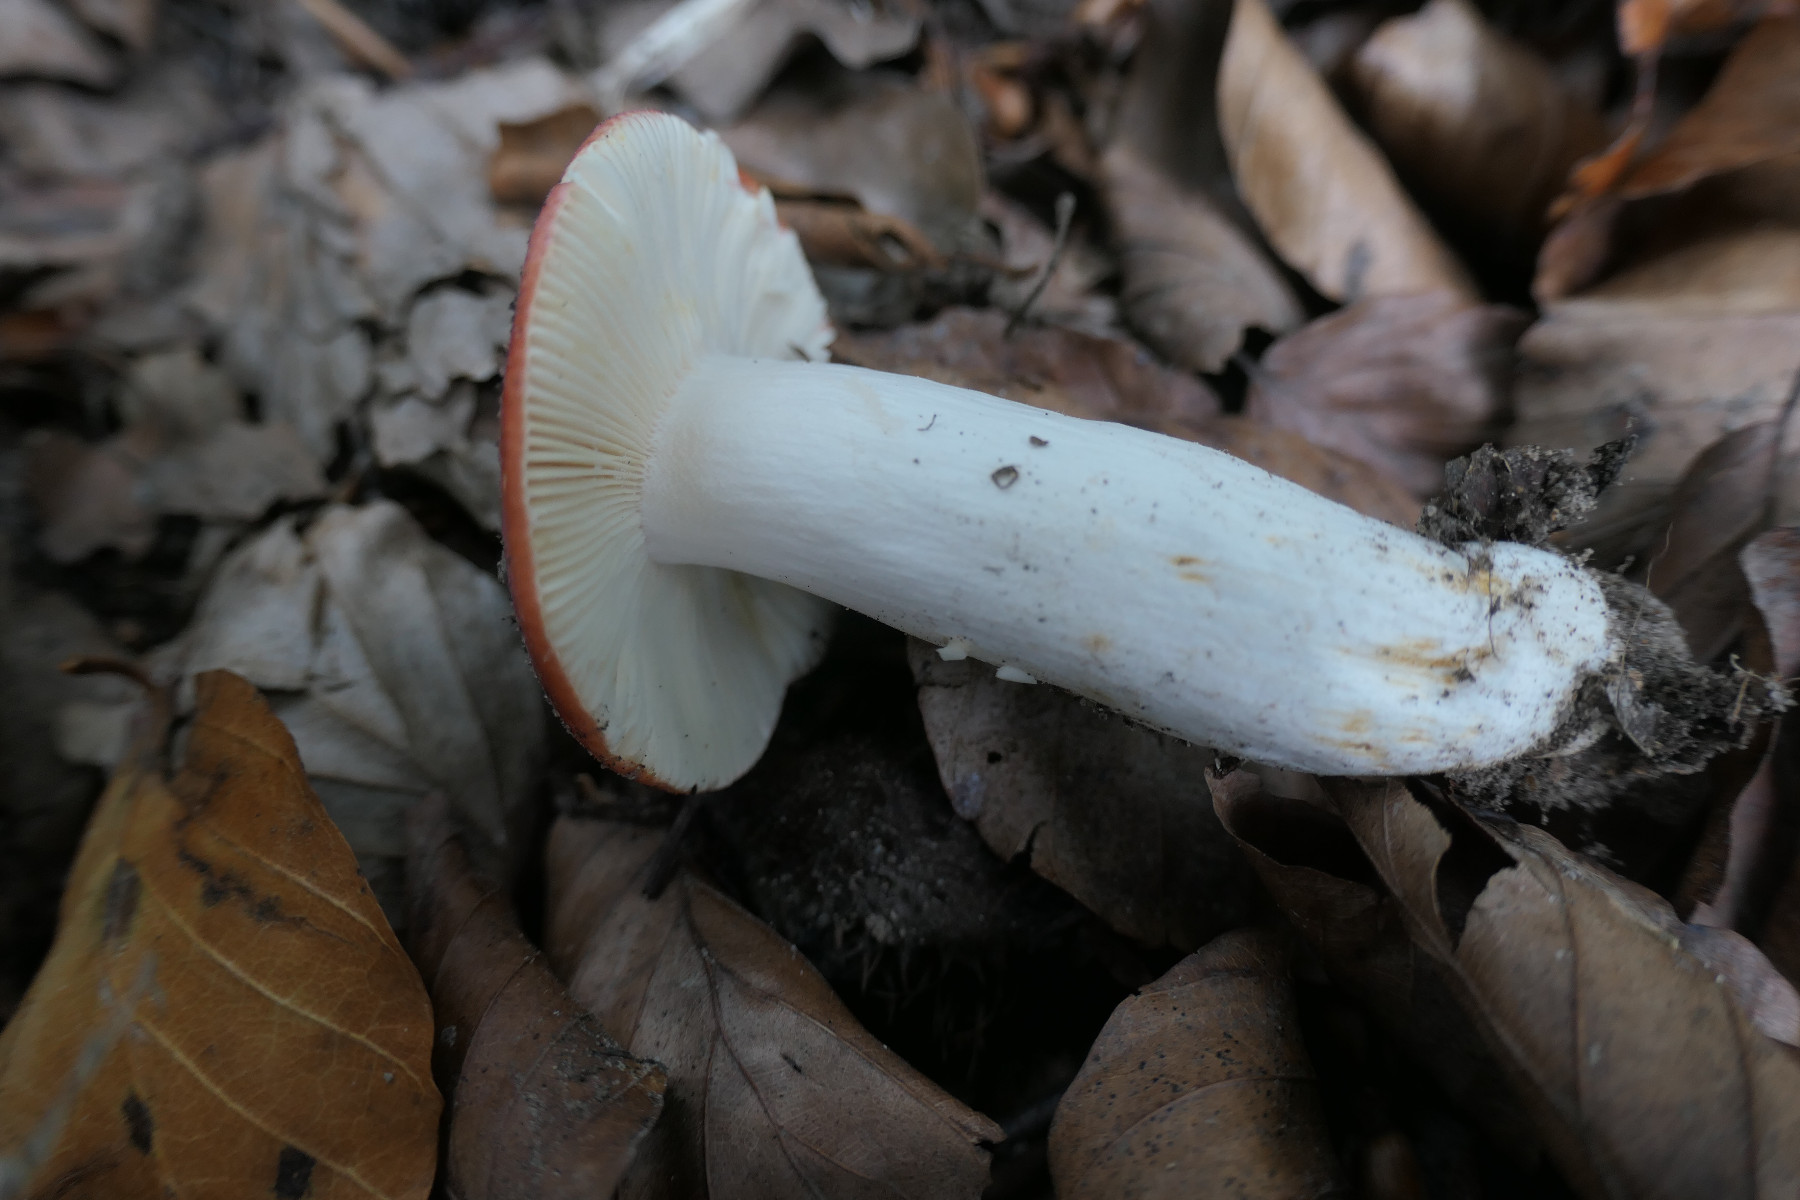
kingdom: Fungi
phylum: Basidiomycota
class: Agaricomycetes
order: Russulales
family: Russulaceae
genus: Russula
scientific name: Russula melliolens
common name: honning-skørhat
